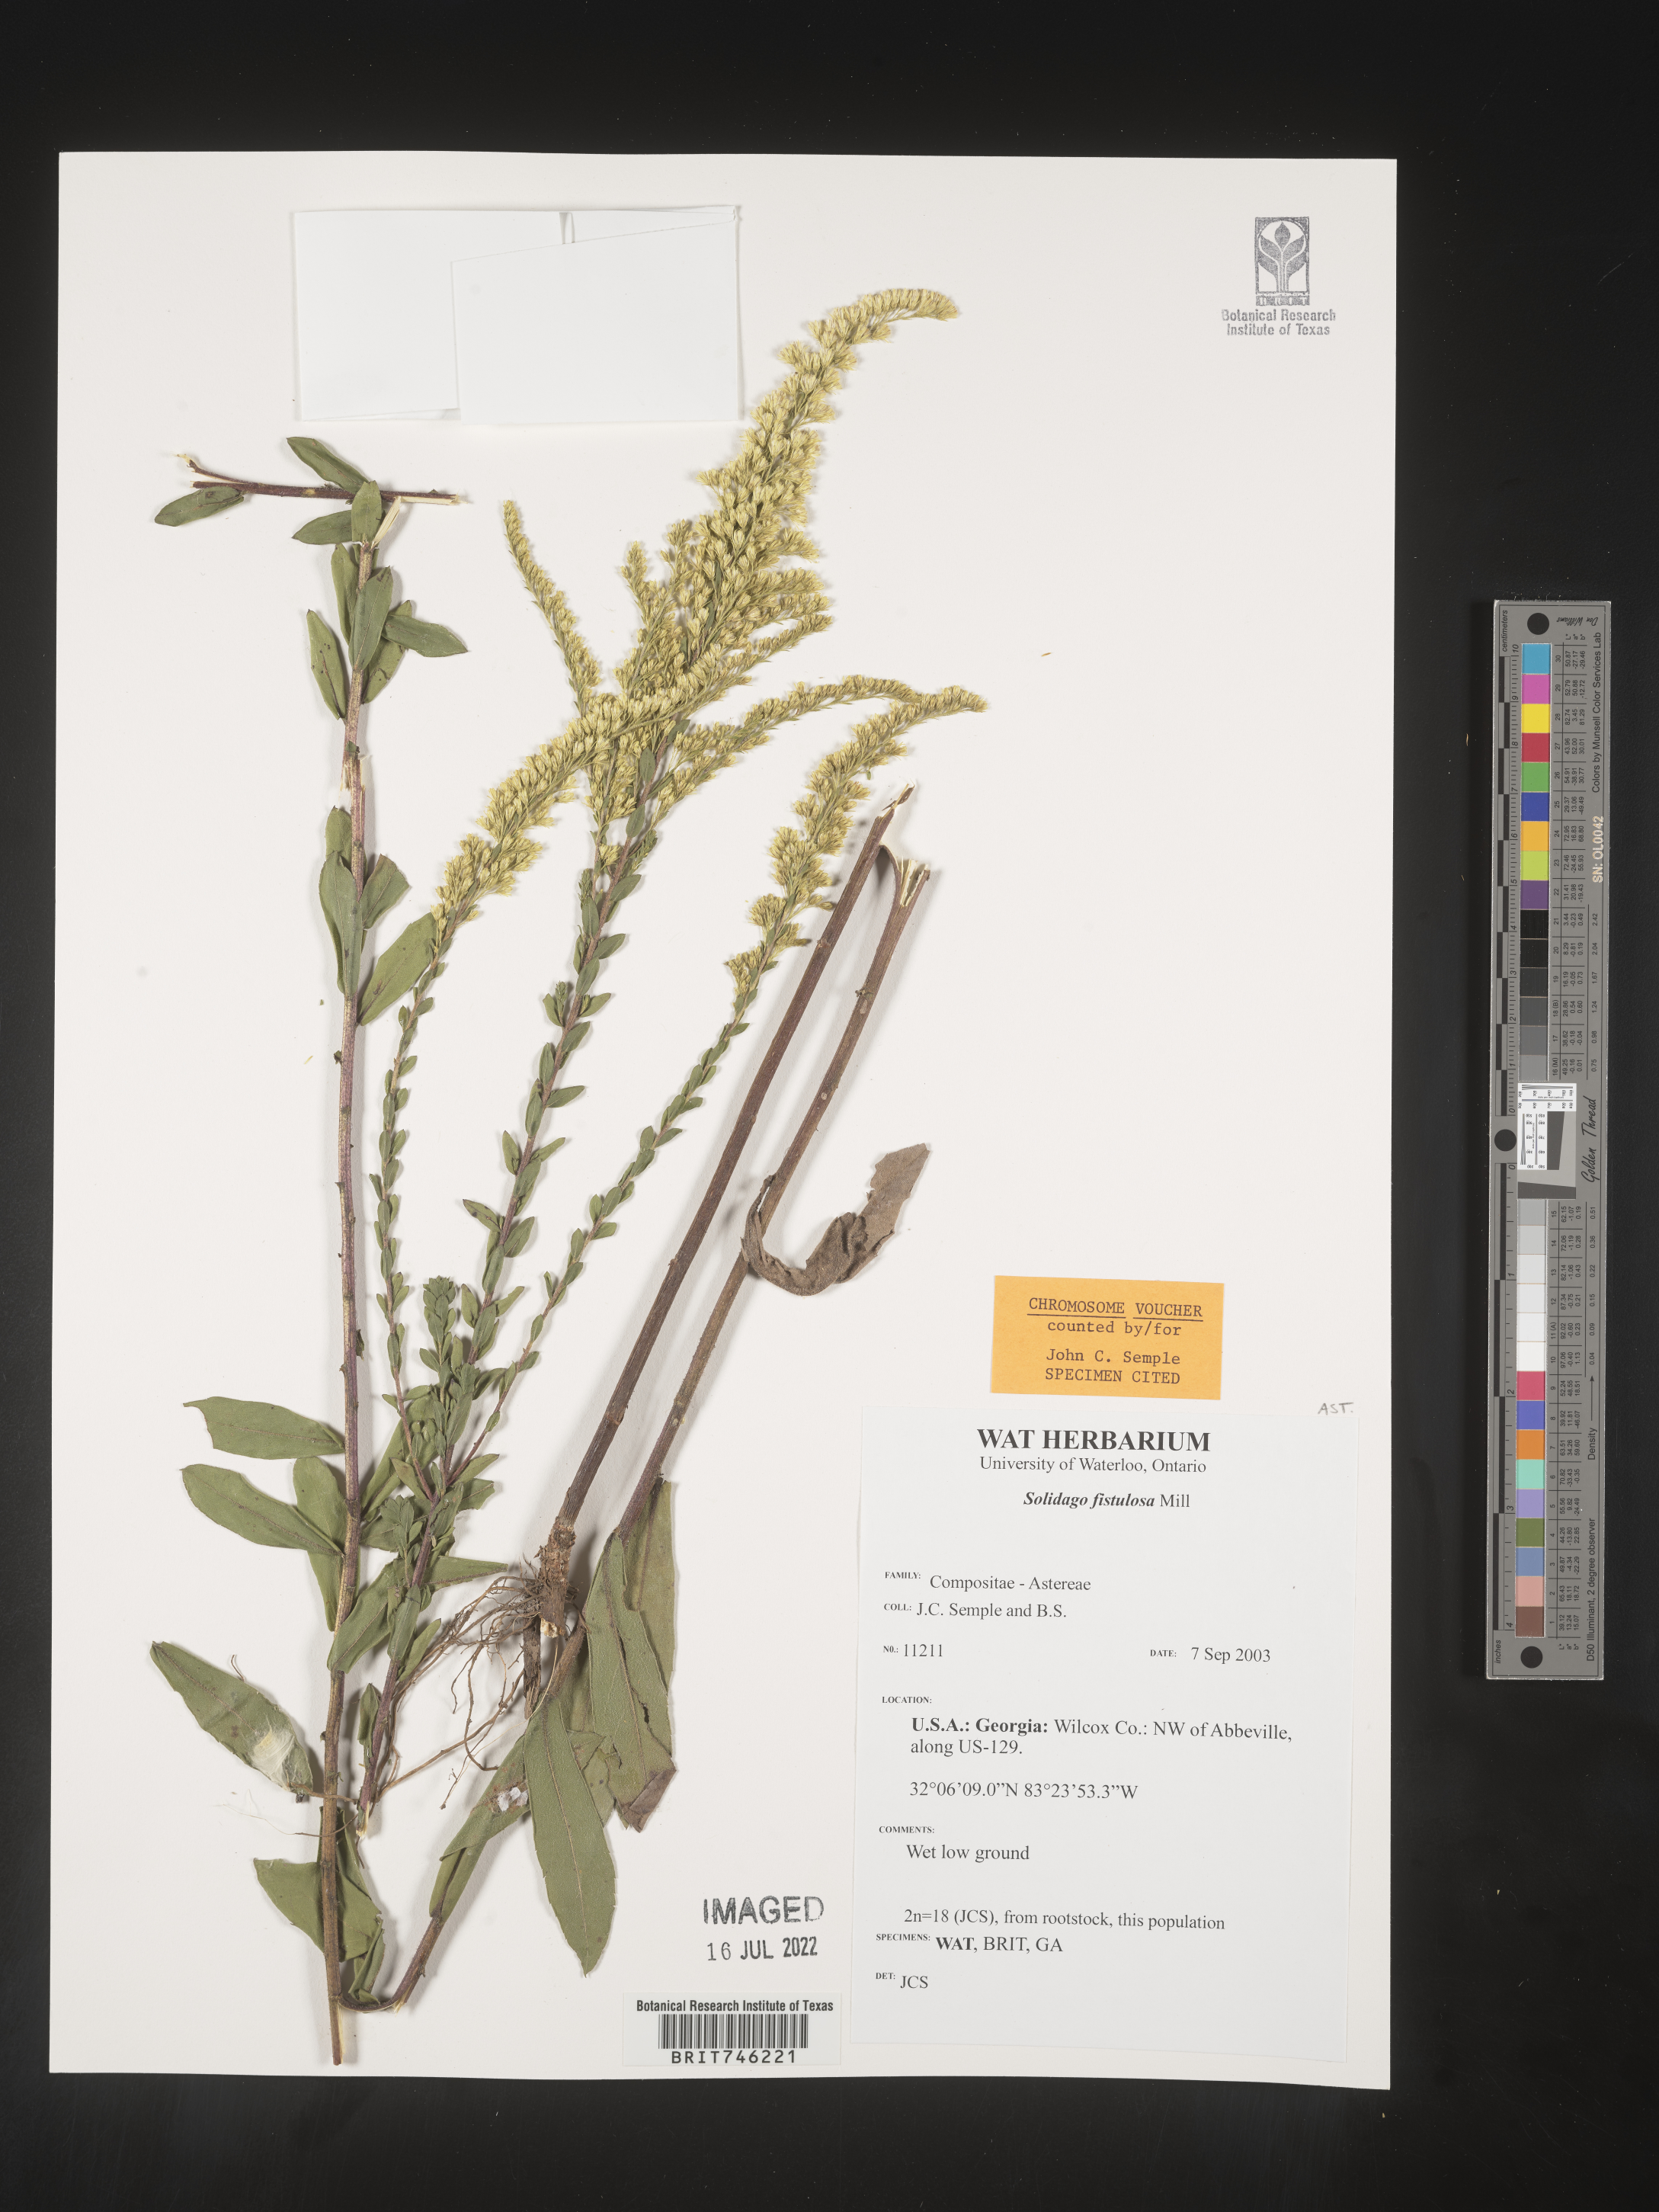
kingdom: Plantae
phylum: Tracheophyta
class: Magnoliopsida
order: Asterales
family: Asteraceae
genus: Solidago
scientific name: Solidago fistulosa
